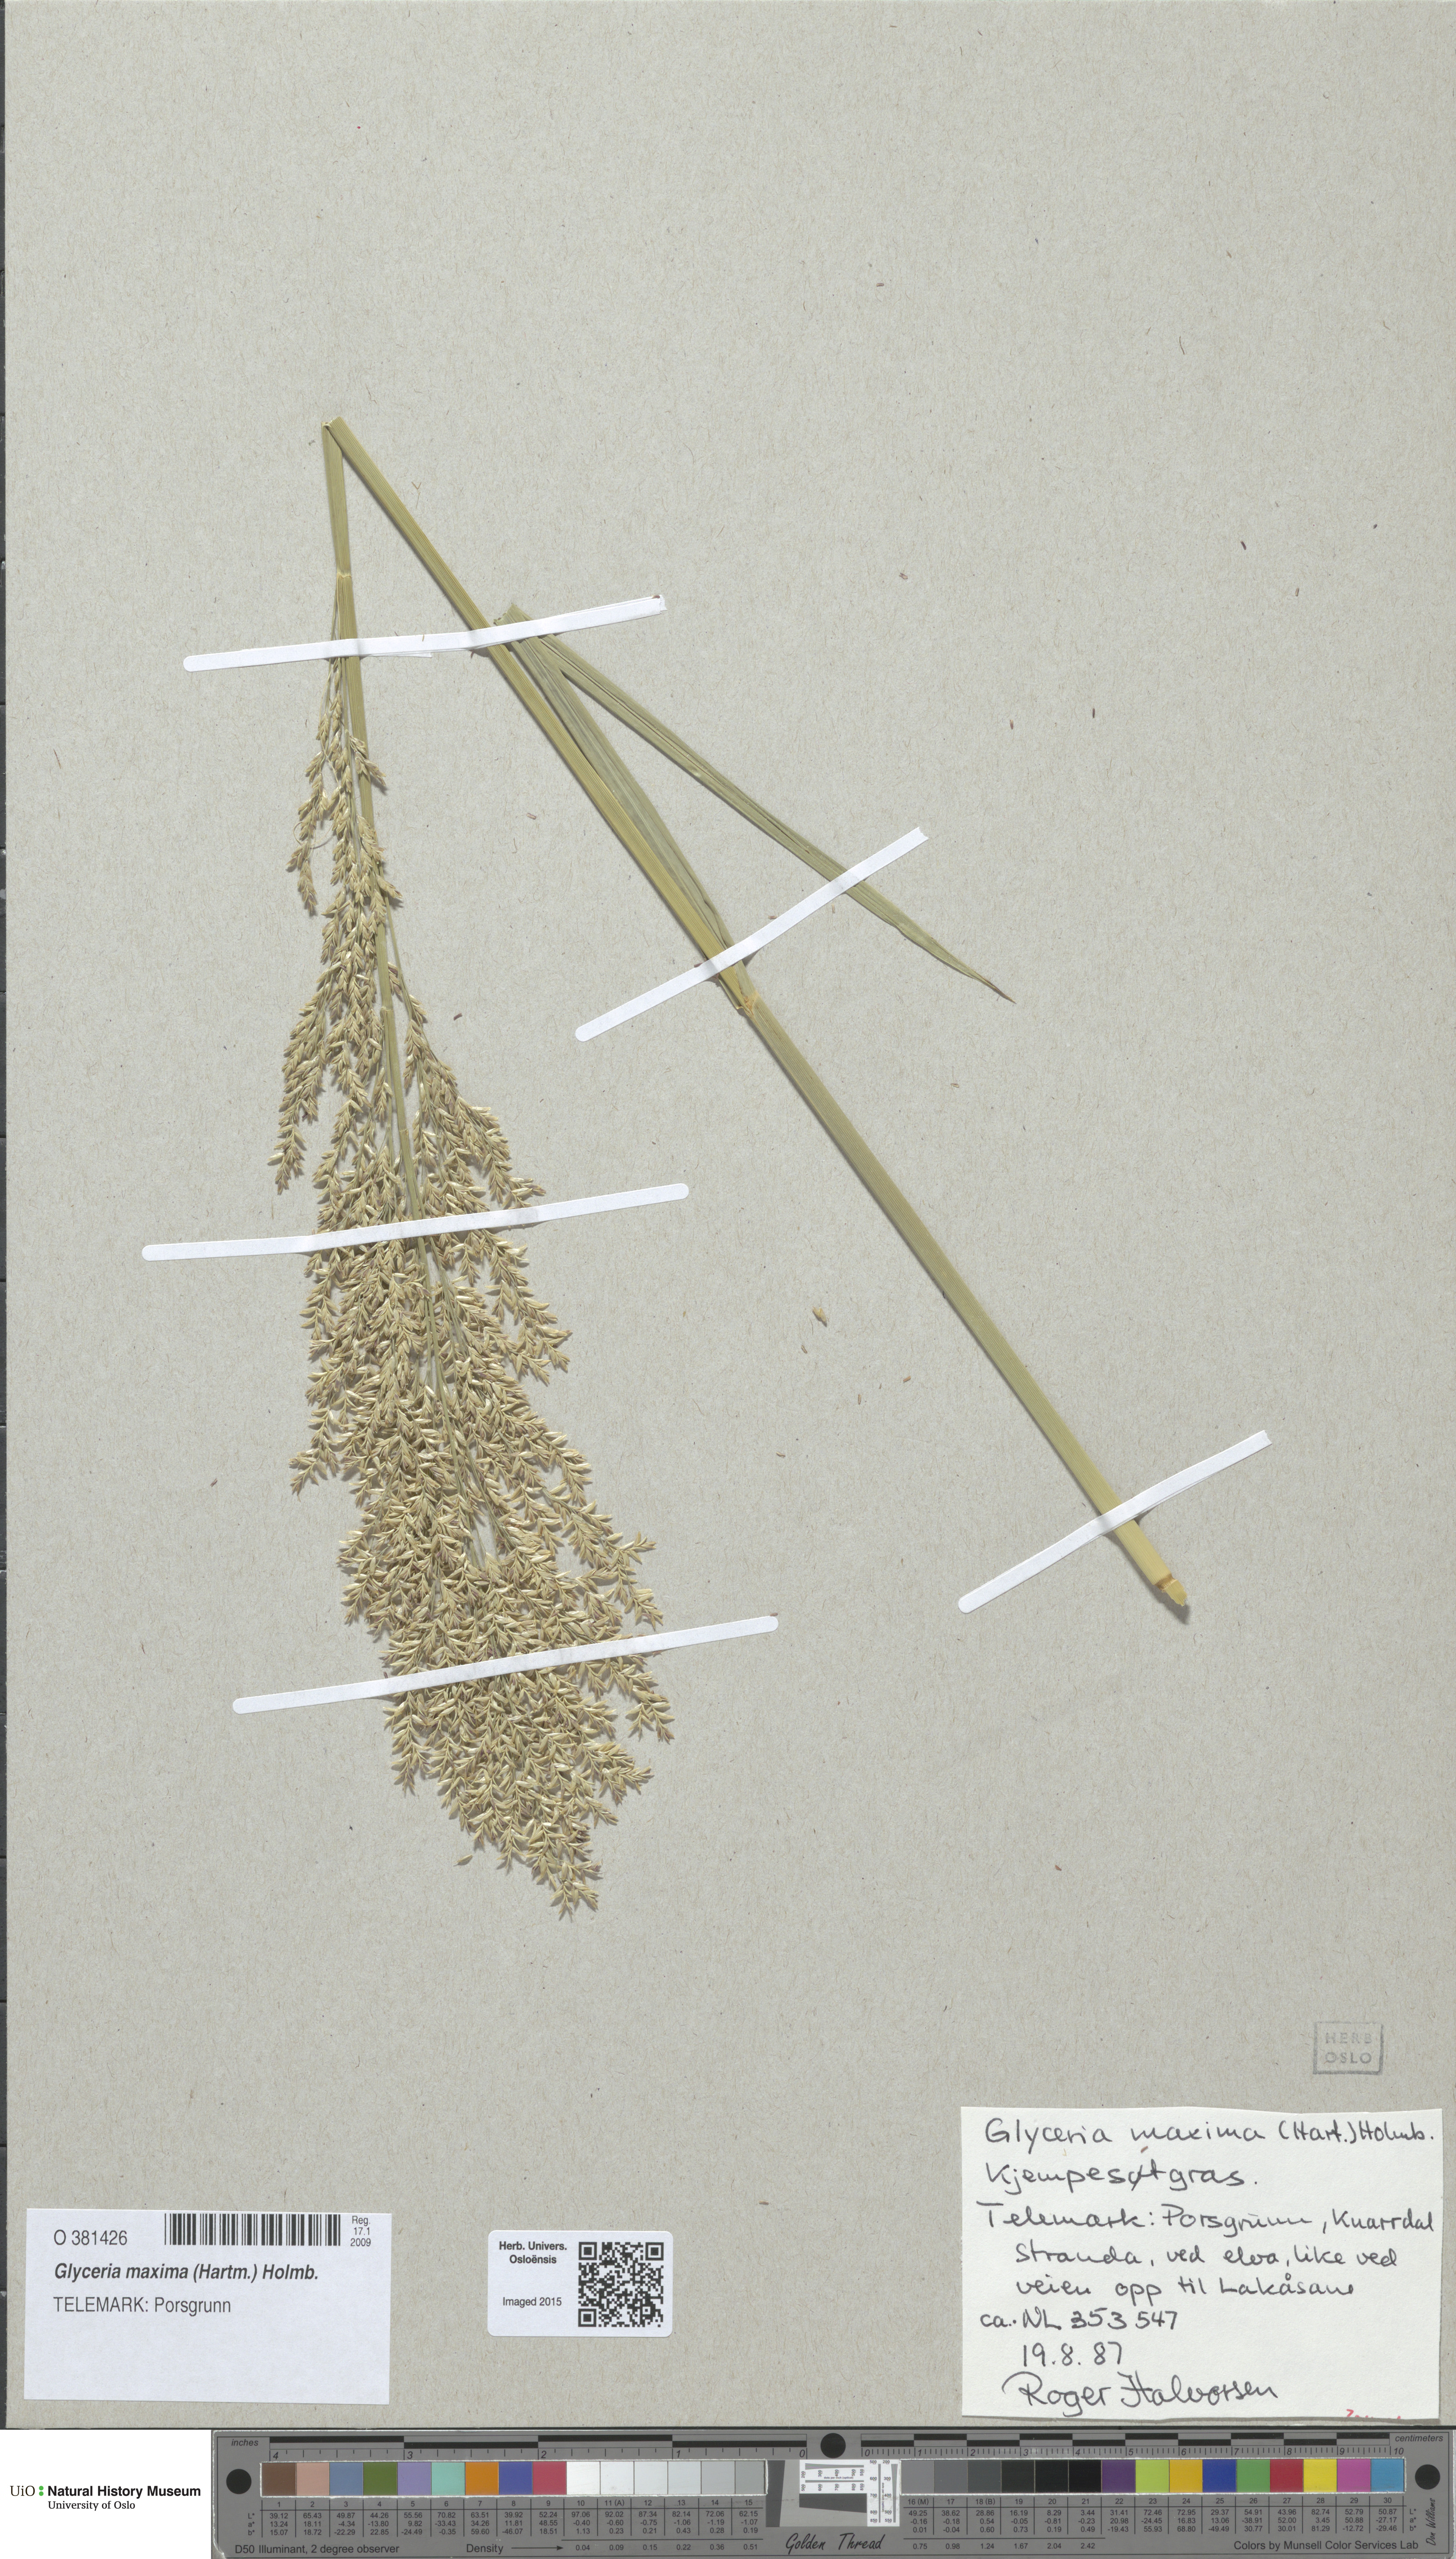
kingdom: Plantae
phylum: Tracheophyta
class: Liliopsida
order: Poales
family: Poaceae
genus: Glyceria
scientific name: Glyceria maxima
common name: Reed mannagrass
